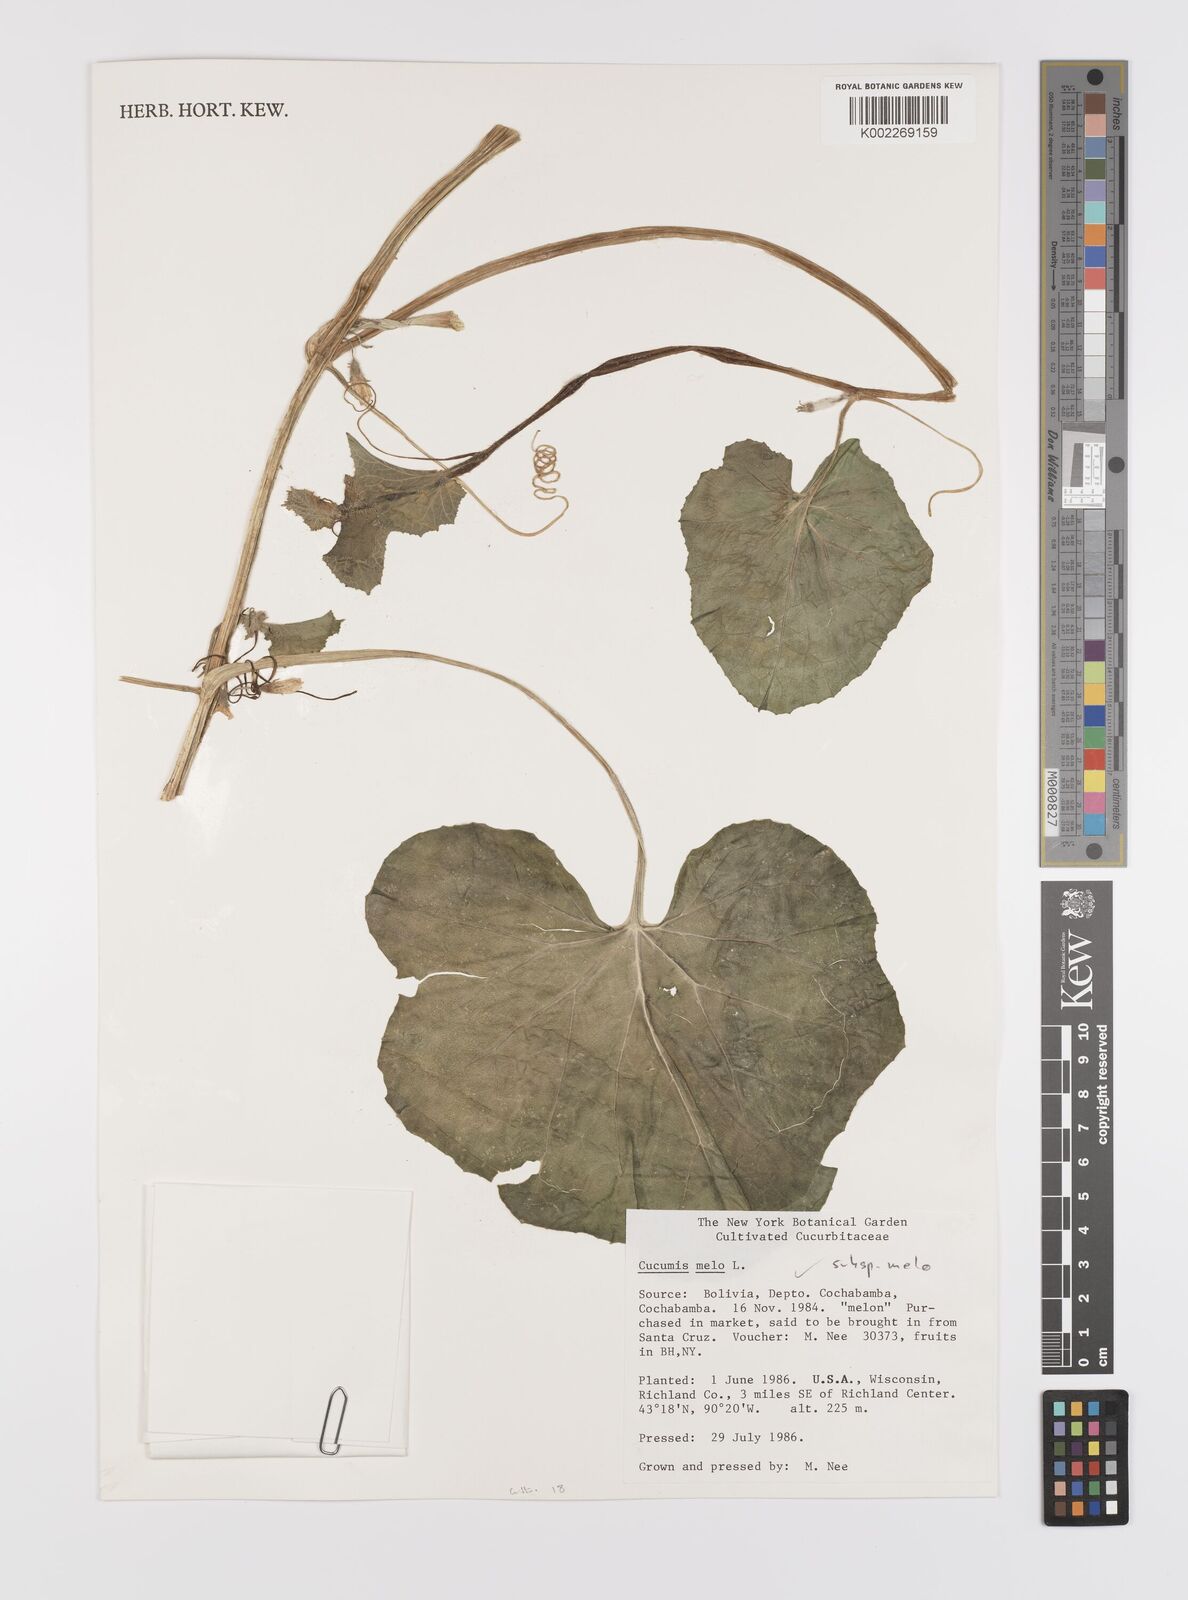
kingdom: Plantae
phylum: Tracheophyta
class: Magnoliopsida
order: Cucurbitales
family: Cucurbitaceae
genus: Cucumis
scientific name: Cucumis melo
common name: Melon
